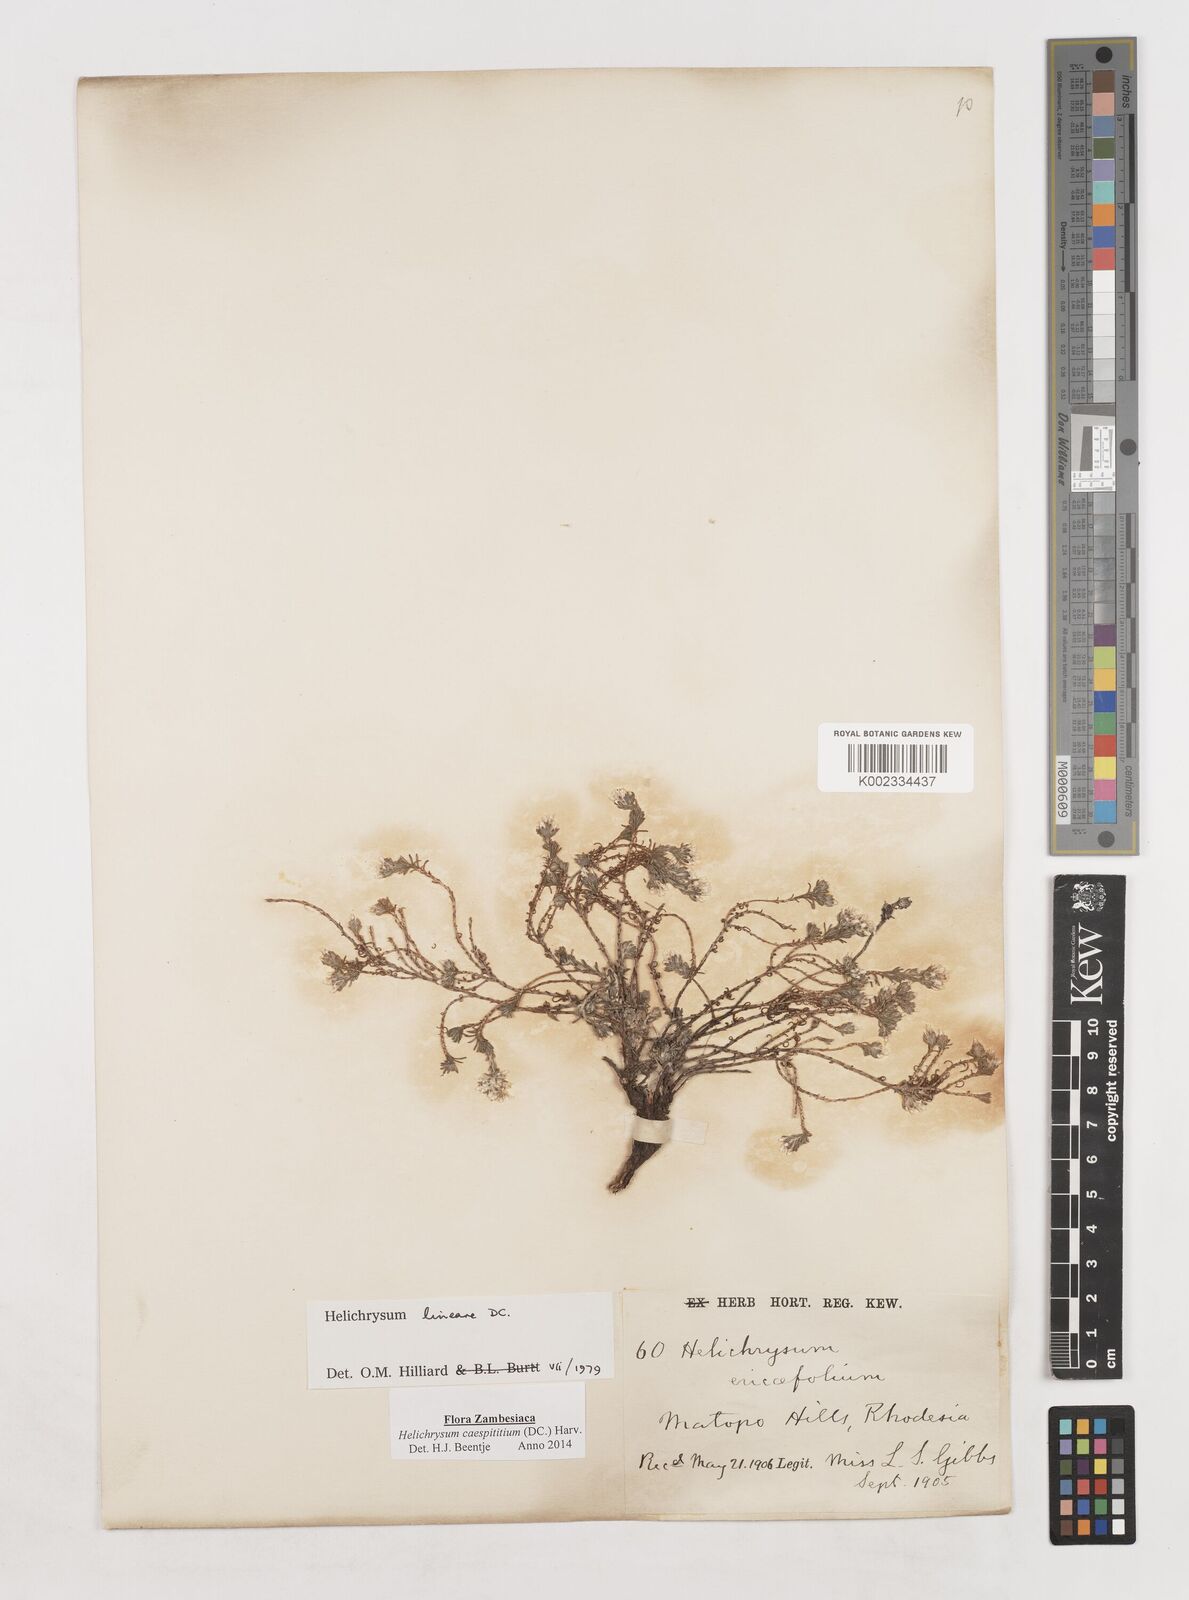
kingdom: Plantae
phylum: Tracheophyta
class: Magnoliopsida
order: Asterales
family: Asteraceae
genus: Helichrysum
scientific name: Helichrysum caespititium
